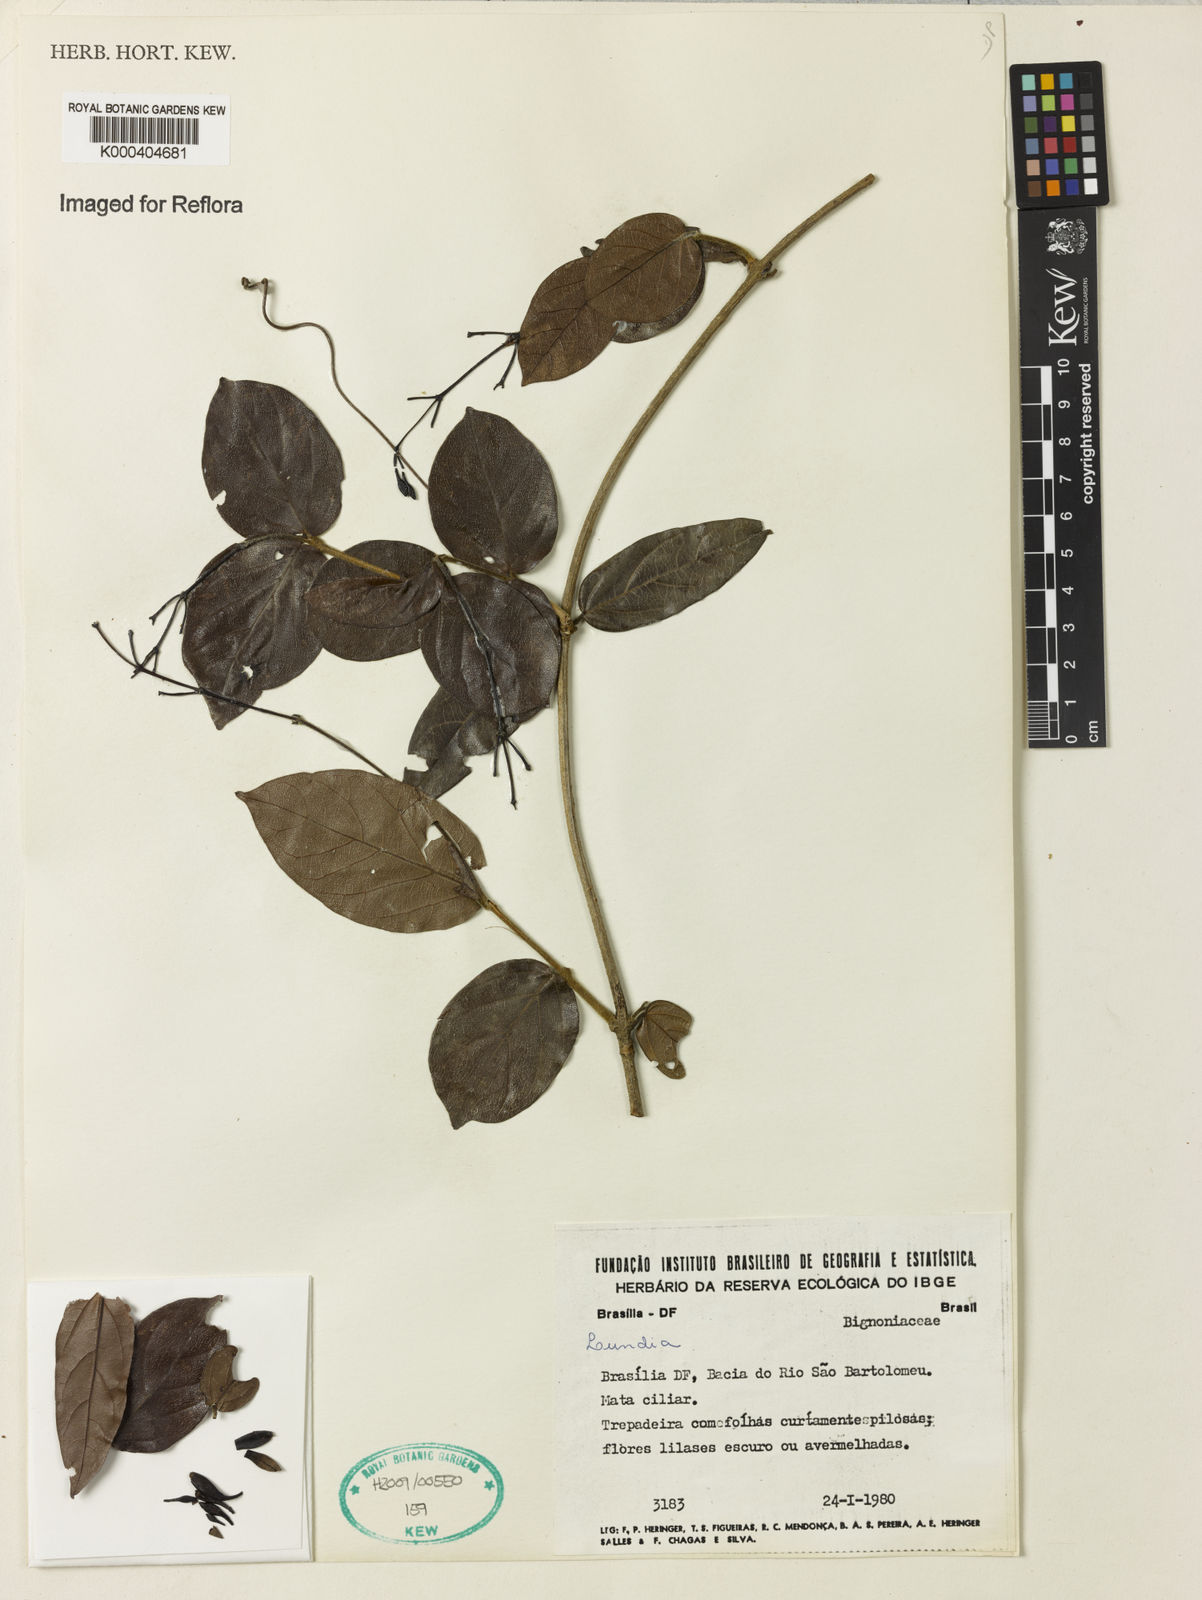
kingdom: Plantae
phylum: Tracheophyta
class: Magnoliopsida
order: Lamiales
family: Bignoniaceae
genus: Lundia
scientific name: Lundia
